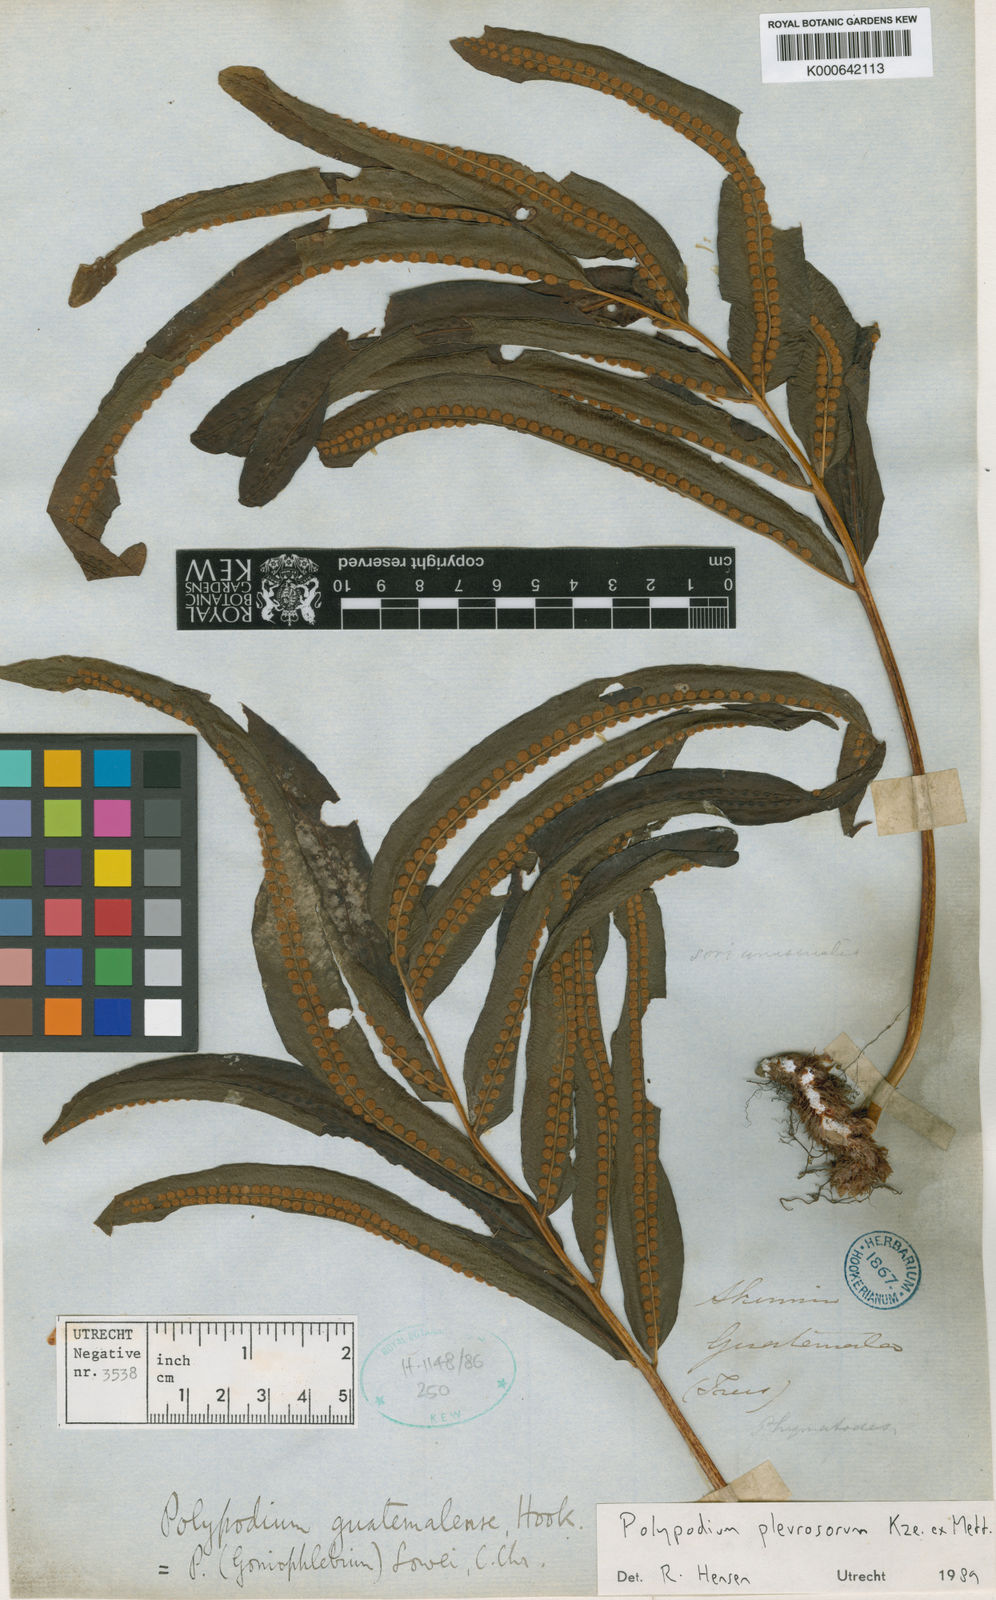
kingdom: Plantae
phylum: Tracheophyta
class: Polypodiopsida
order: Polypodiales
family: Polypodiaceae
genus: Polypodium
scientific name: Polypodium
